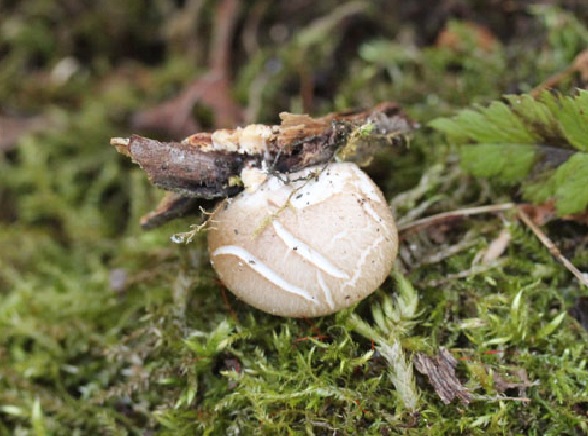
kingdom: Fungi
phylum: Basidiomycota
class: Agaricomycetes
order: Agaricales
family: Pleurotaceae
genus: Pleurotus
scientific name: Pleurotus ostreatus
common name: Oyster mushroom
